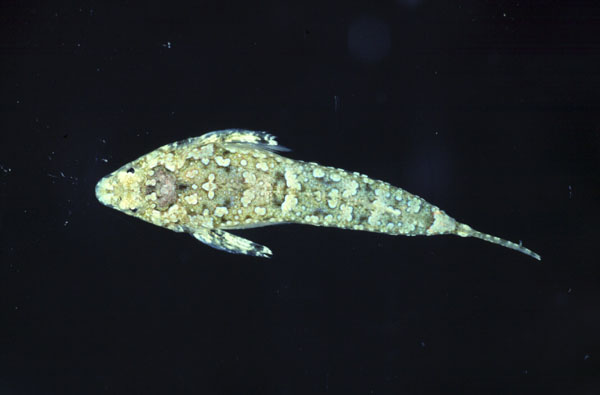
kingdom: Animalia
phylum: Chordata
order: Perciformes
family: Callionymidae
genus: Callionymus
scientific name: Callionymus
